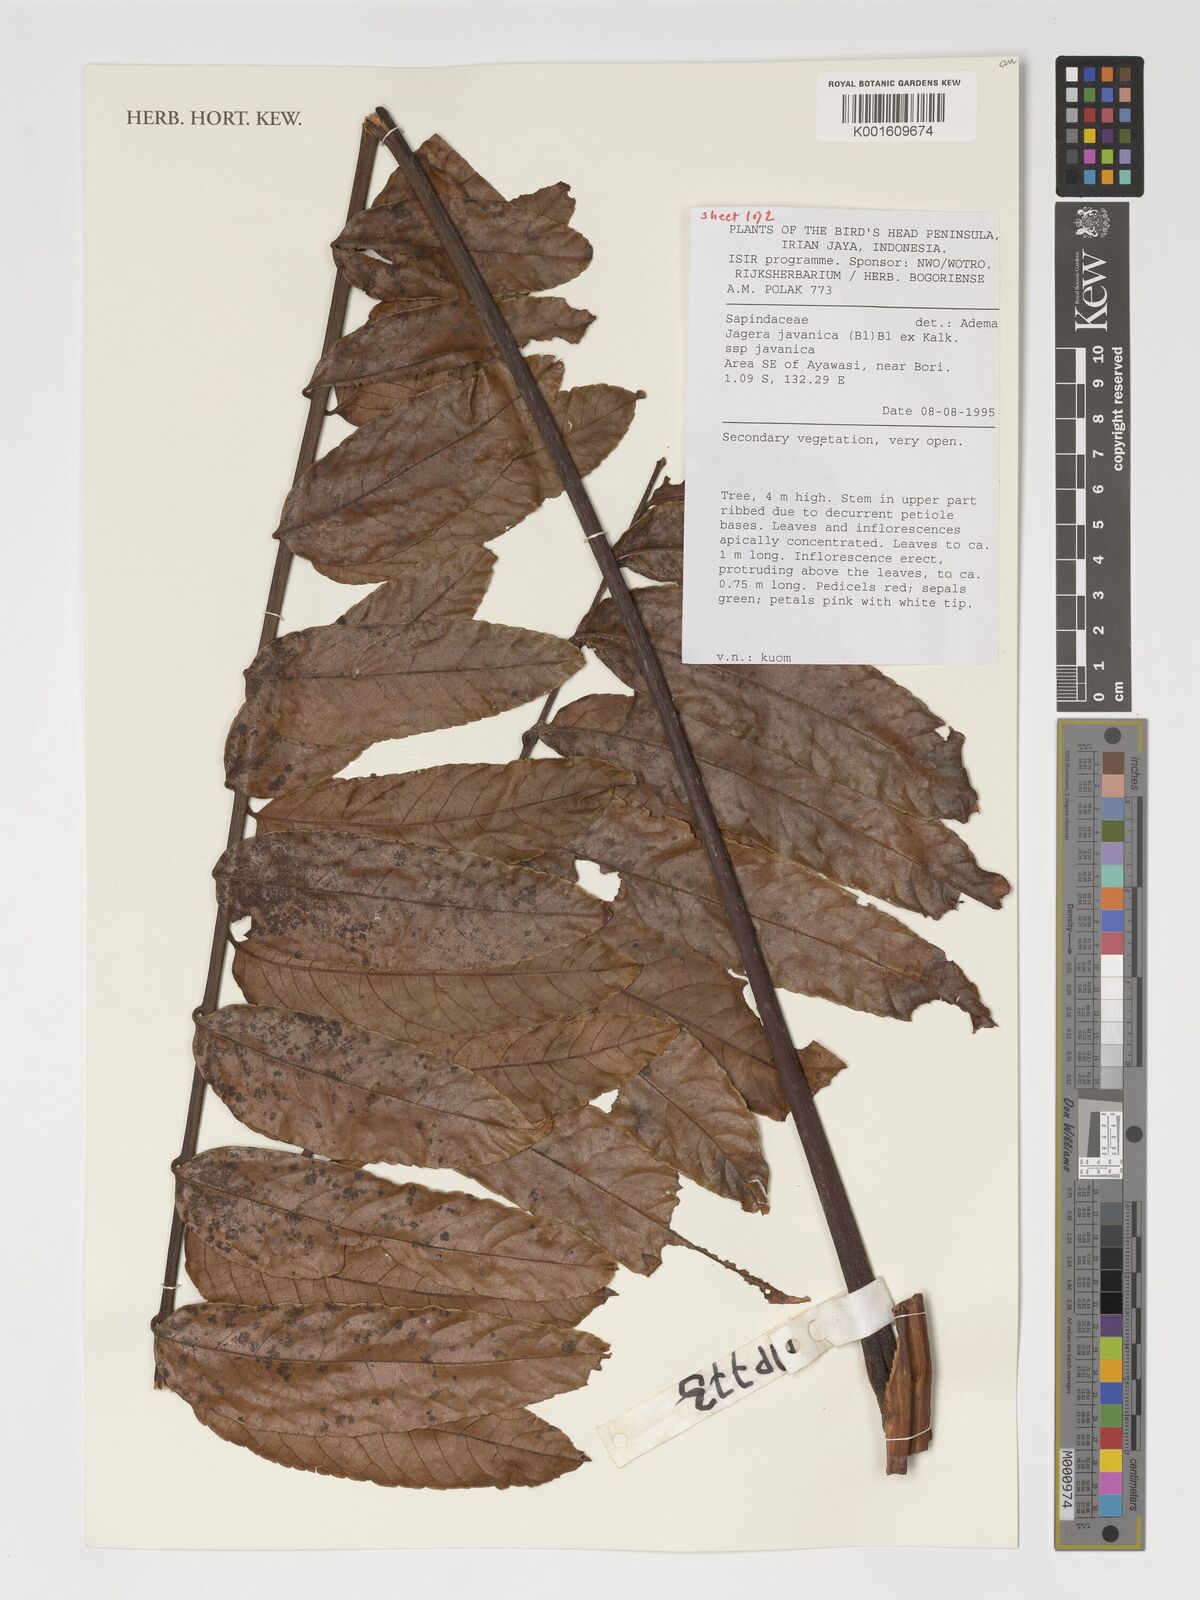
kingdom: Plantae
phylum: Tracheophyta
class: Magnoliopsida
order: Sapindales
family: Sapindaceae
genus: Jagera
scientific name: Jagera javanica
